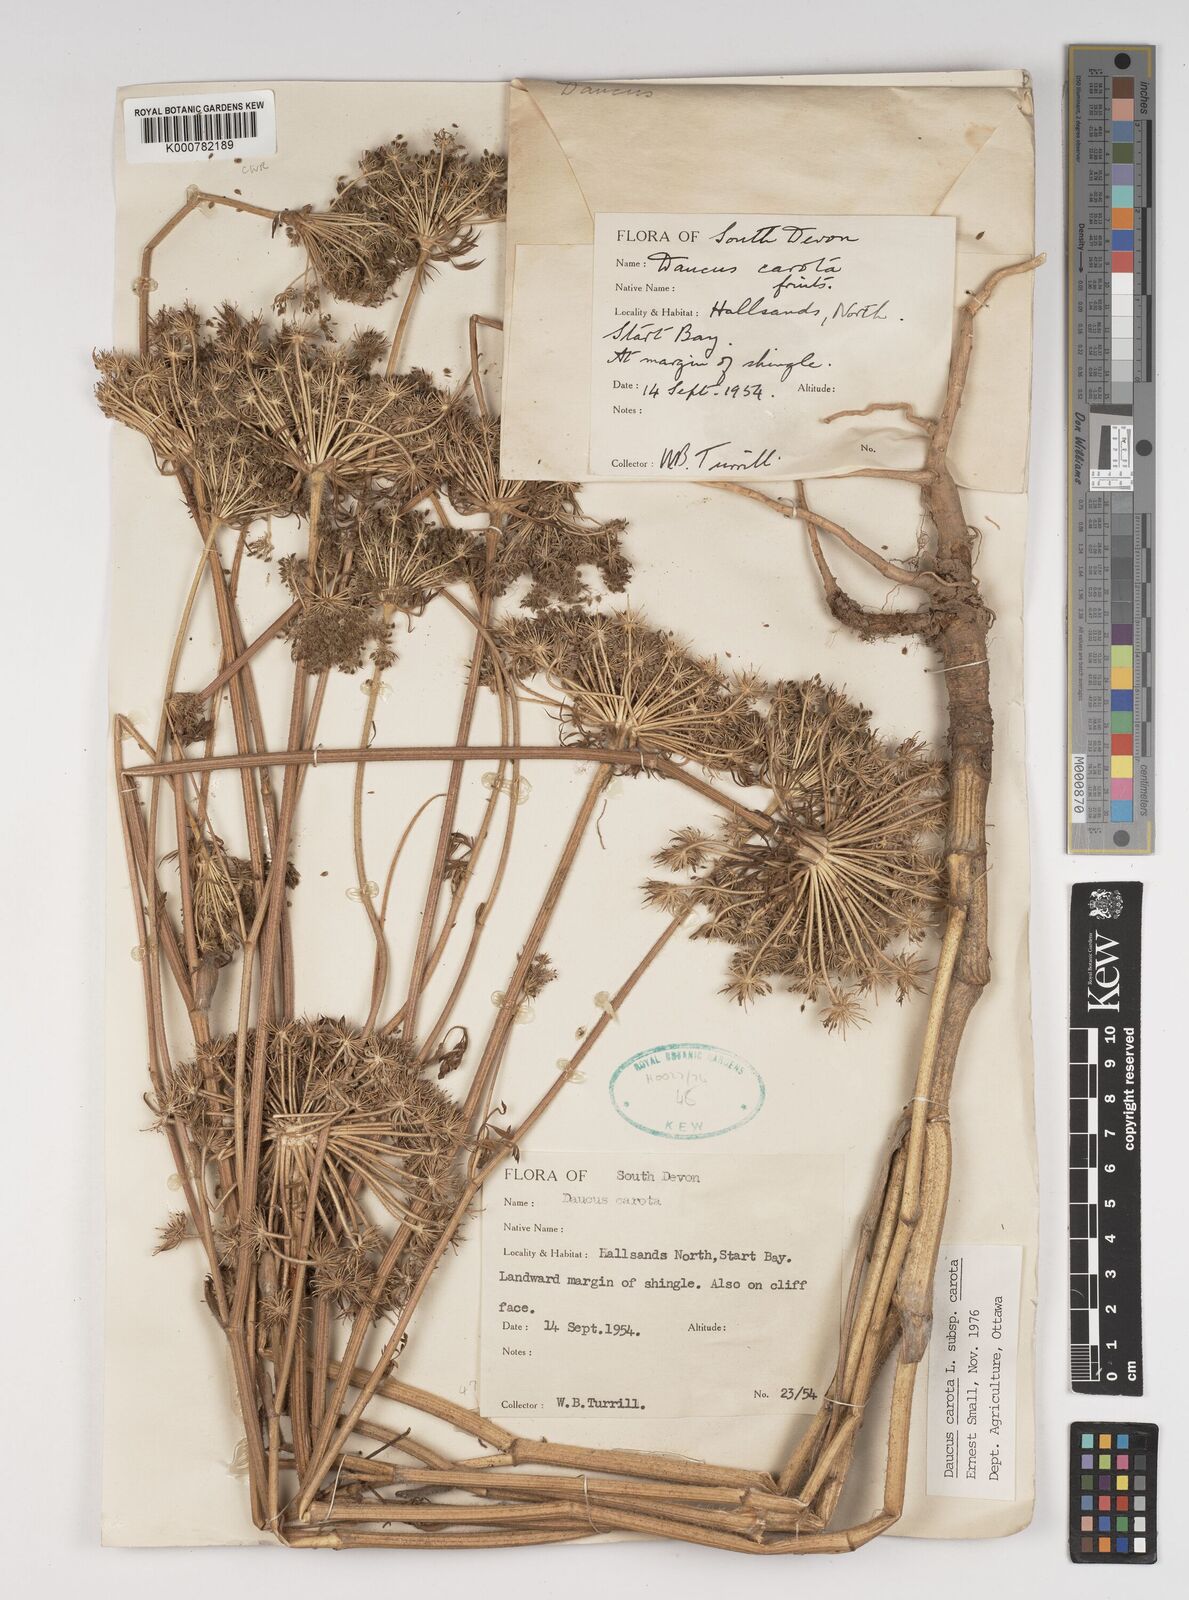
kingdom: Plantae
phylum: Tracheophyta
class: Magnoliopsida
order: Apiales
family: Apiaceae
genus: Daucus
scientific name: Daucus carota
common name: Wild carrot
